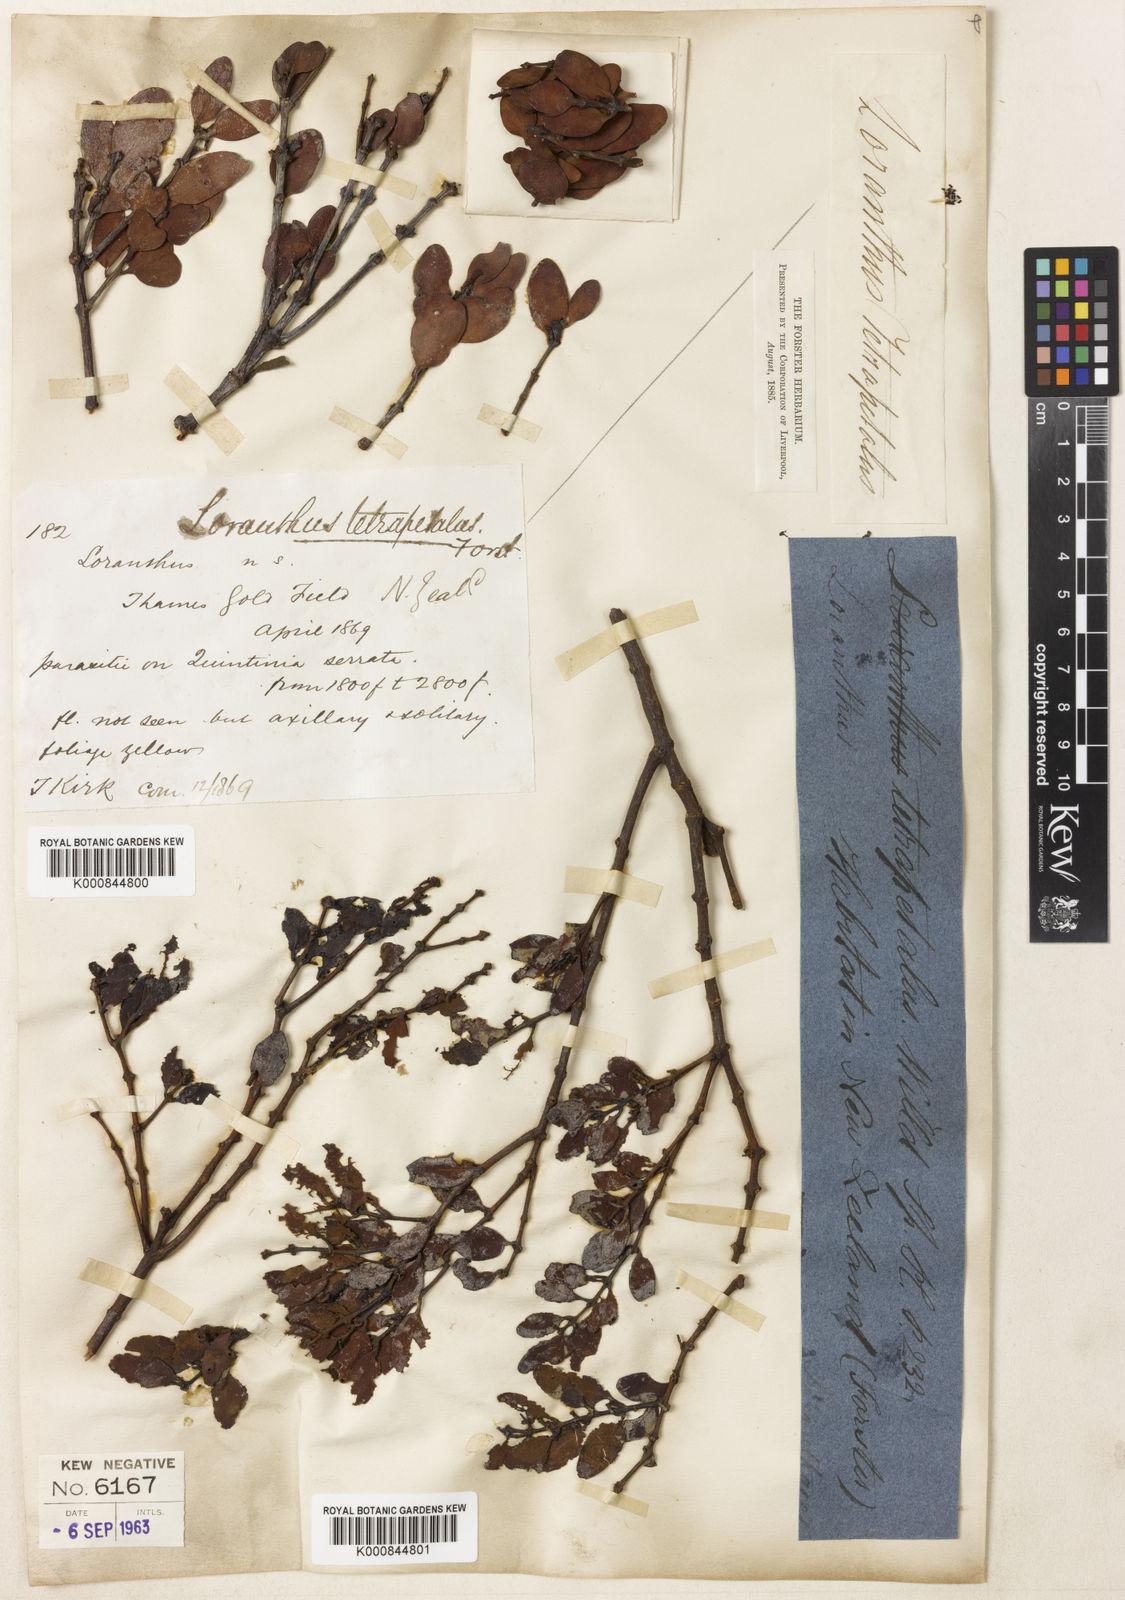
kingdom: Plantae
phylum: Tracheophyta
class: Magnoliopsida
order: Santalales
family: Loranthaceae
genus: Peraxilla
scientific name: Peraxilla tetrapetala
